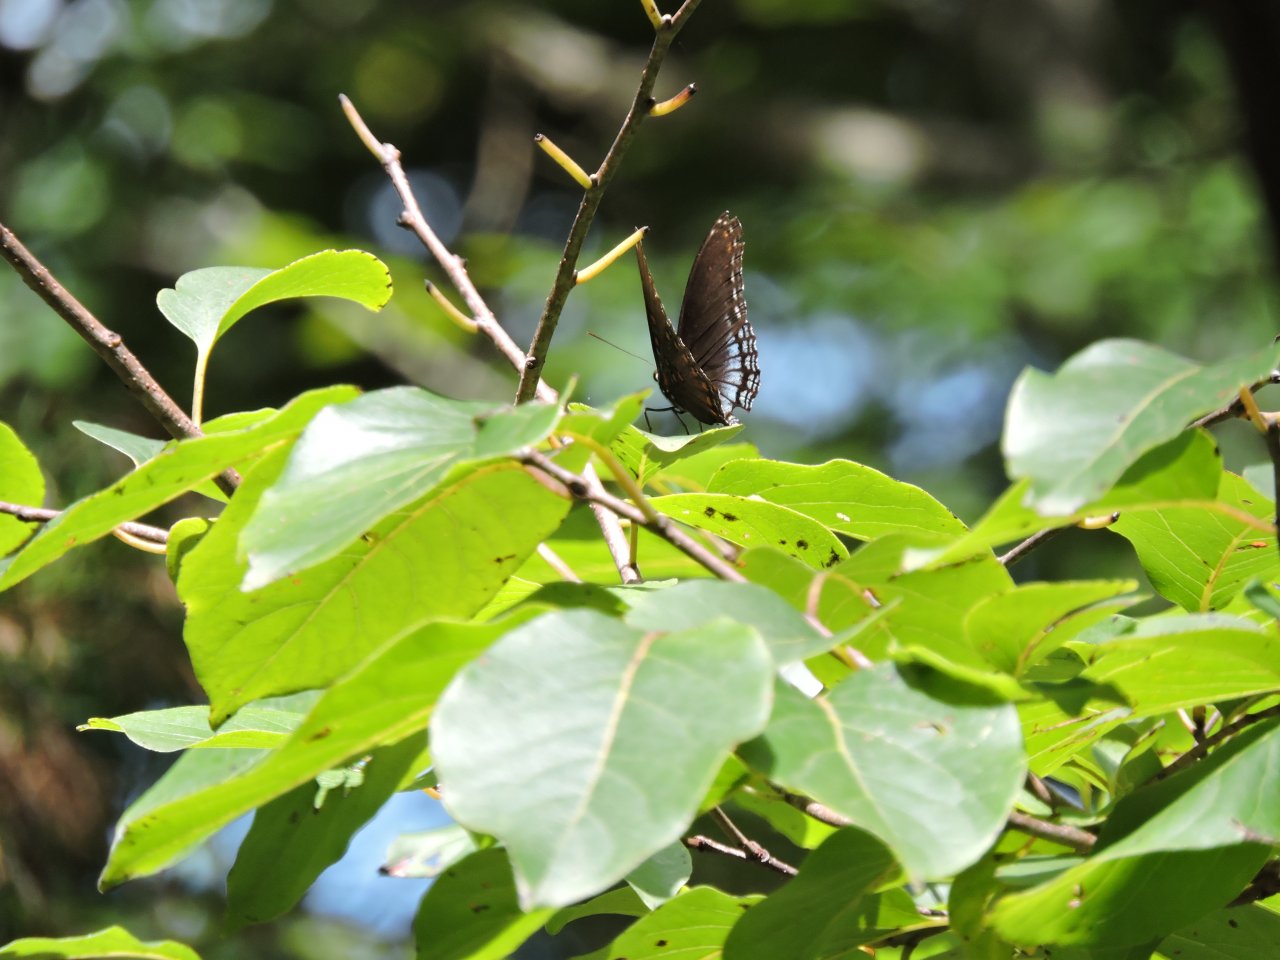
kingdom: Animalia
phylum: Arthropoda
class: Insecta
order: Lepidoptera
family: Nymphalidae
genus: Limenitis
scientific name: Limenitis astyanax
